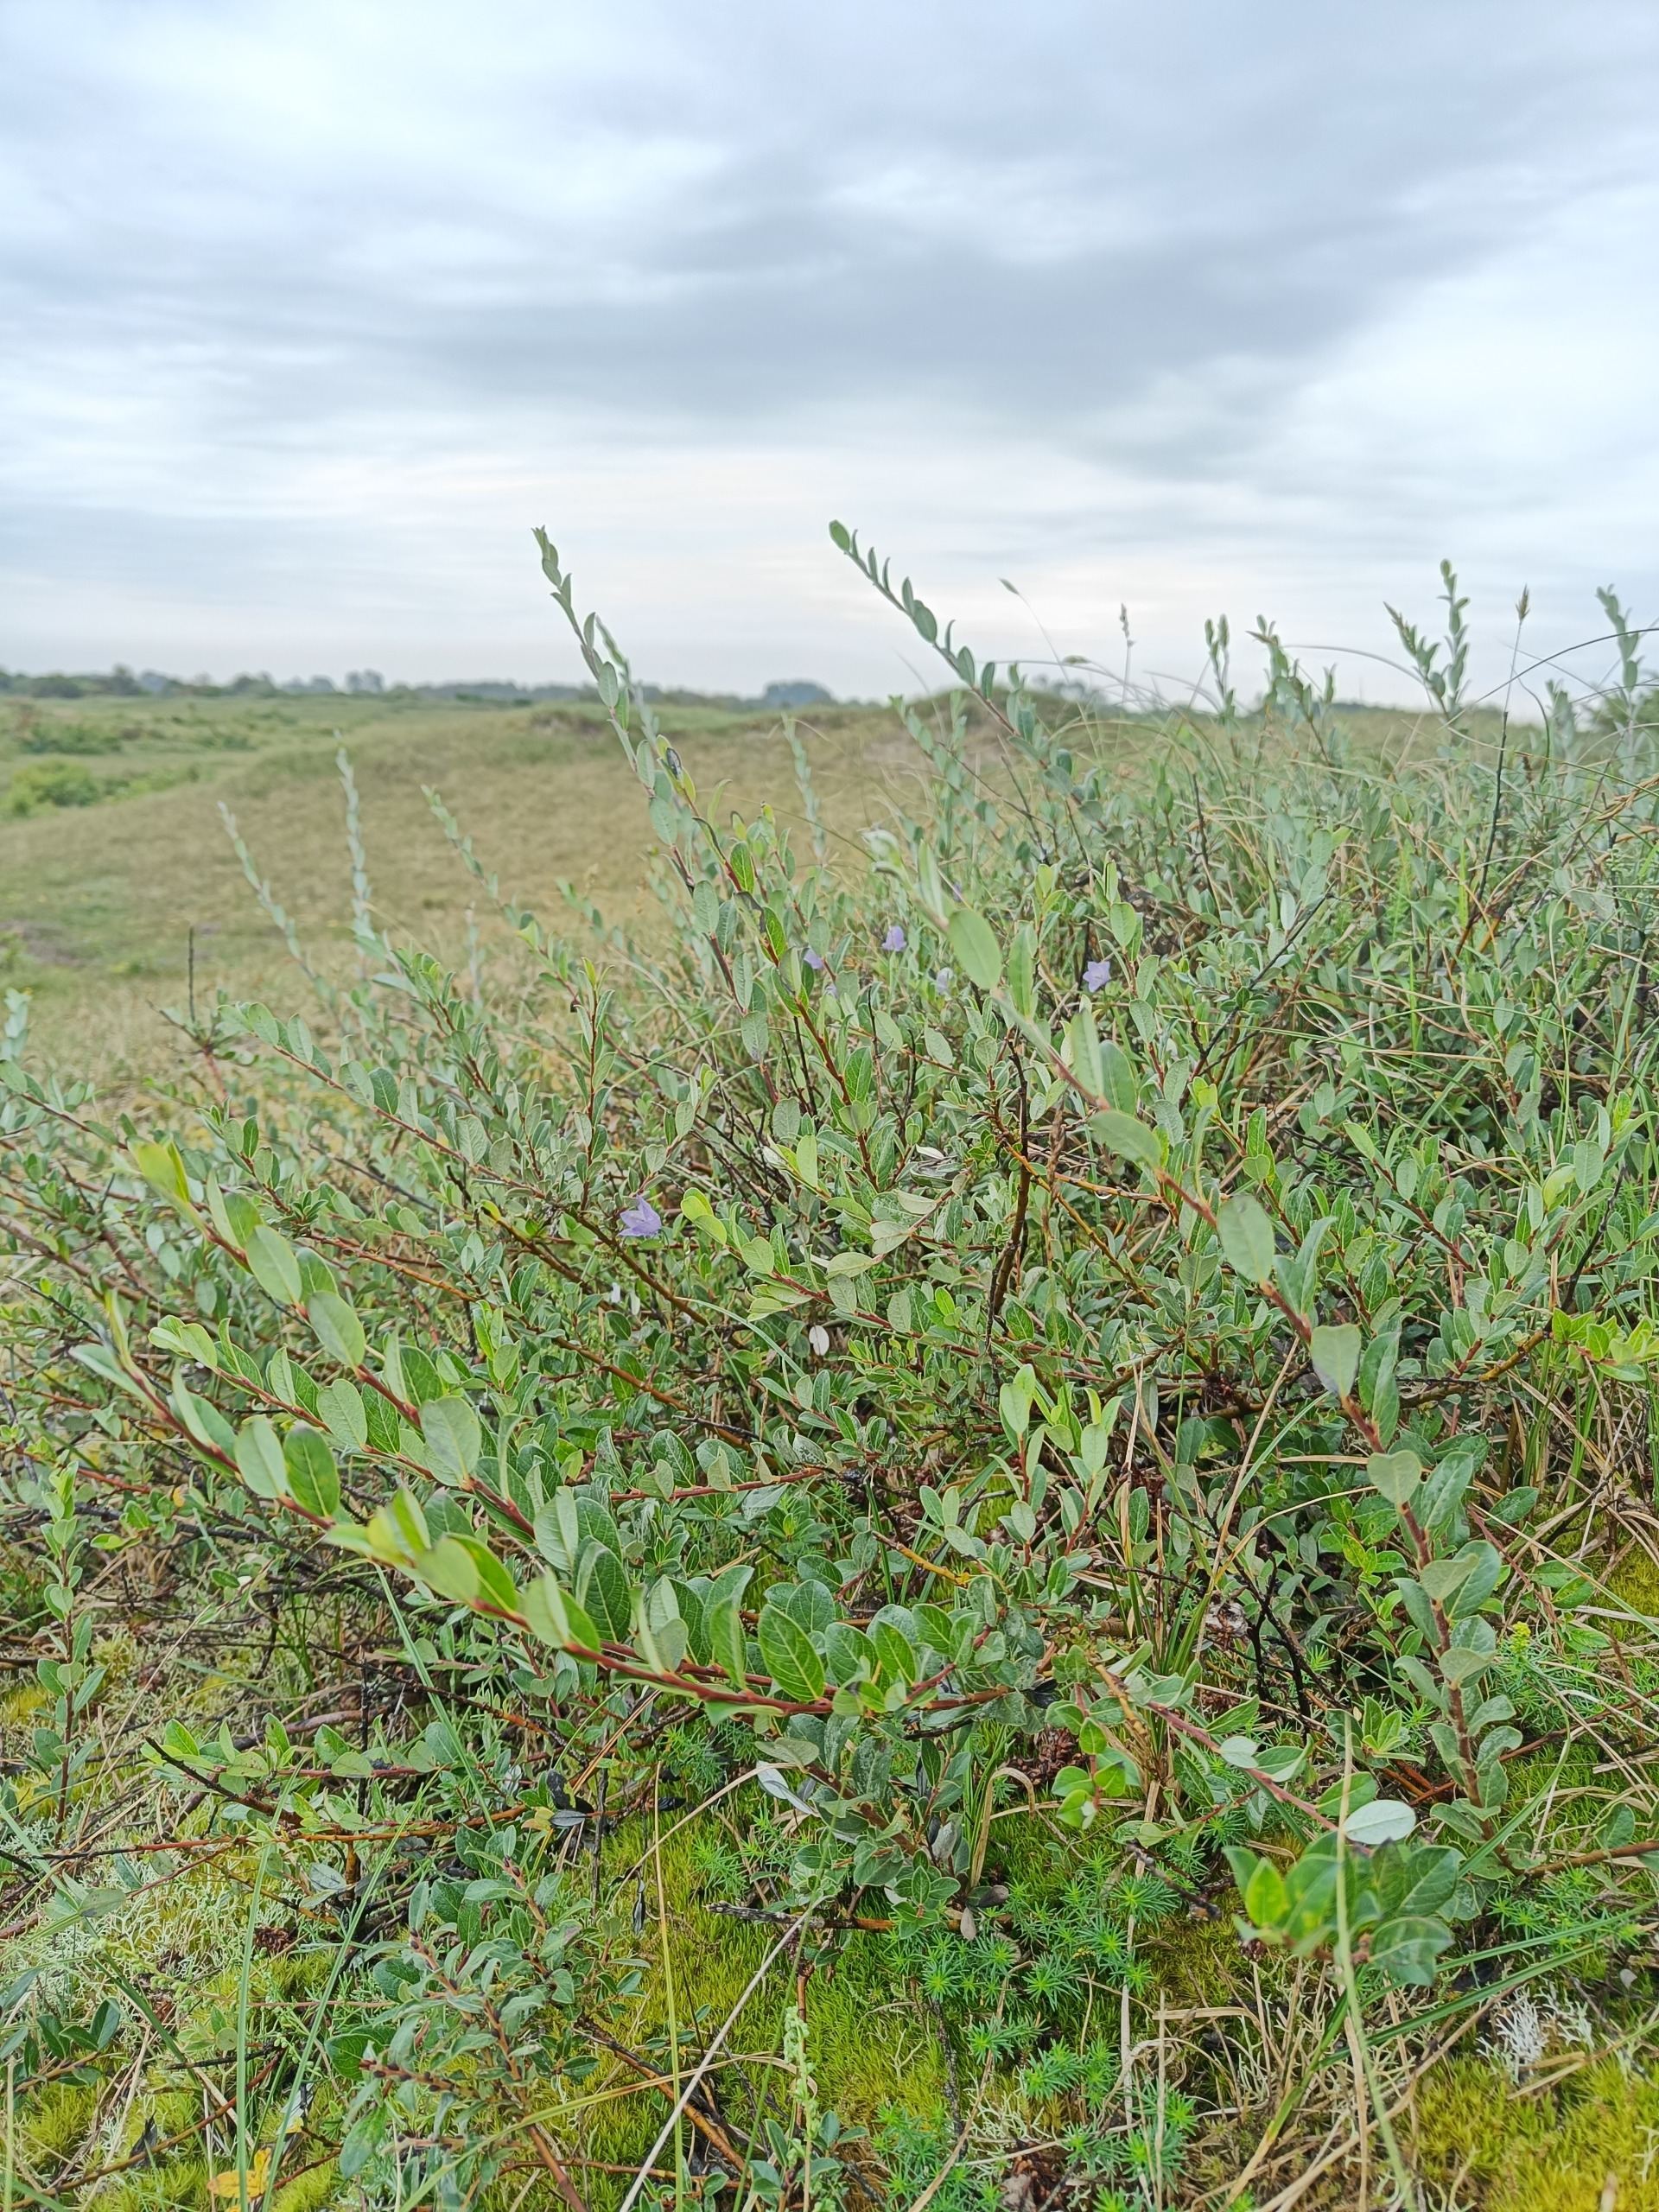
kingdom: Plantae
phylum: Tracheophyta
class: Magnoliopsida
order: Malpighiales
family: Salicaceae
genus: Salix
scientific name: Salix repens
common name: Krybende pil
